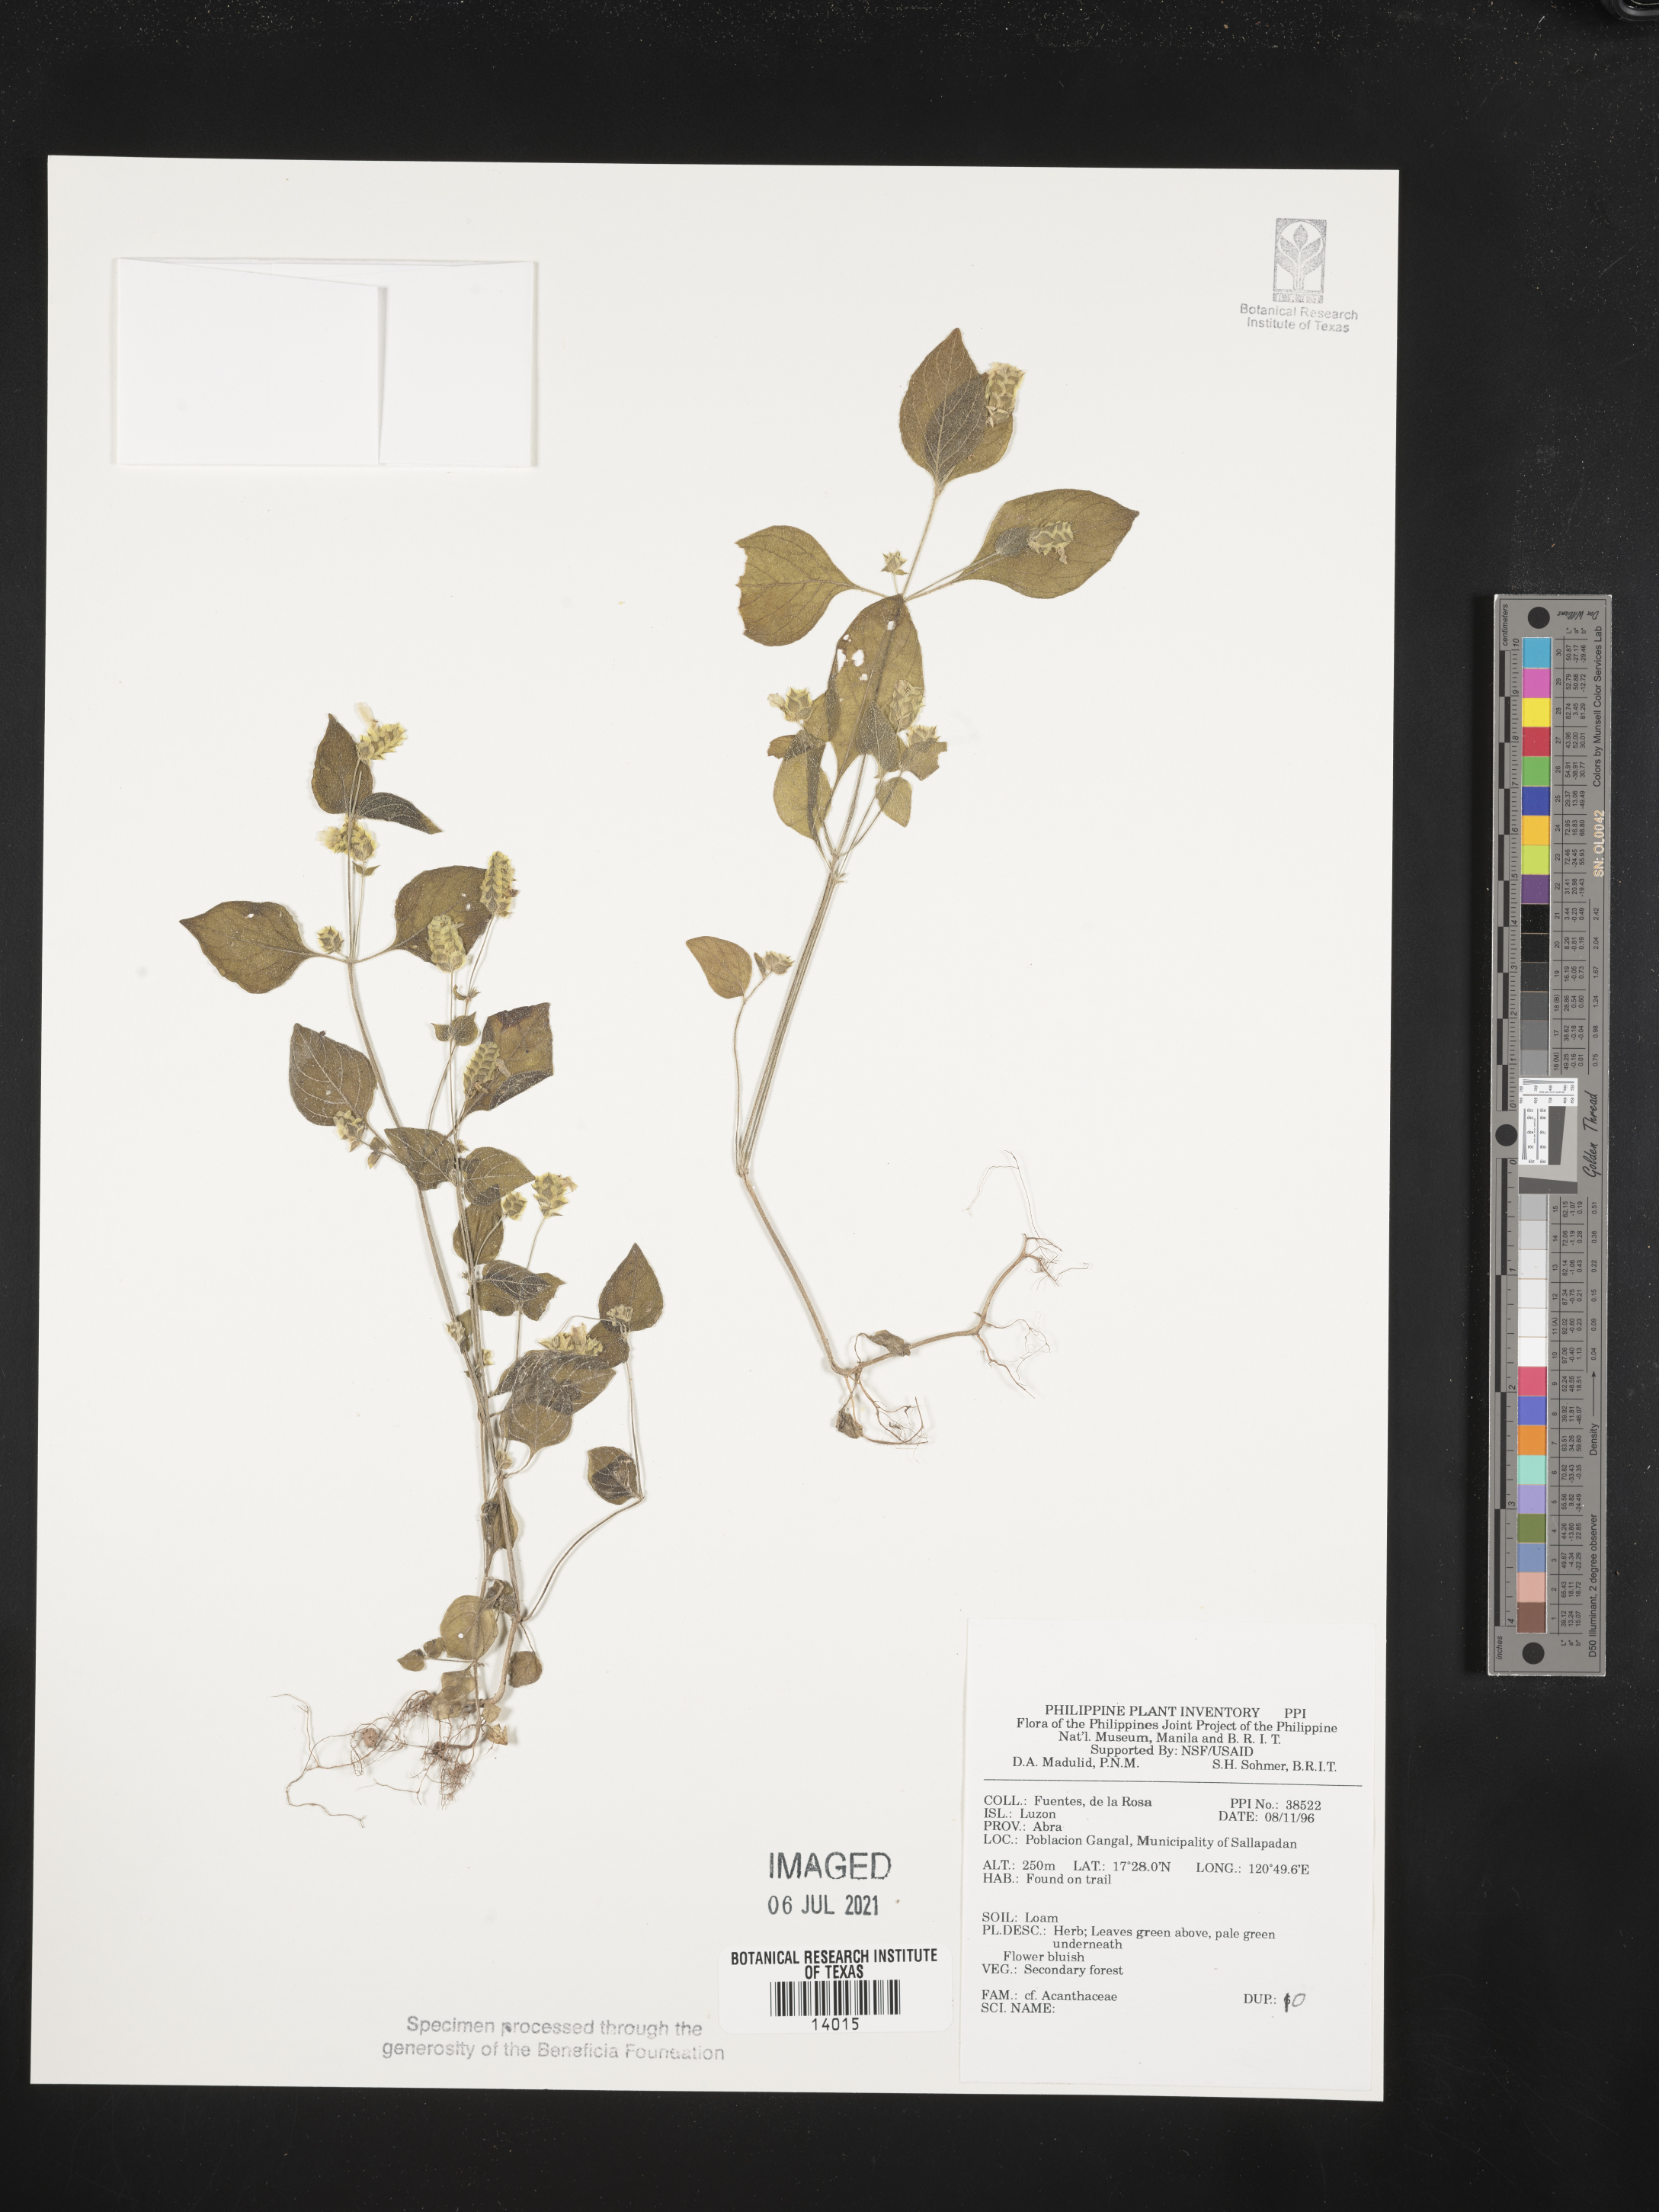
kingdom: Plantae
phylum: Tracheophyta
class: Magnoliopsida
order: Lamiales
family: Acanthaceae
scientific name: Acanthaceae
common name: Acanthaceae
